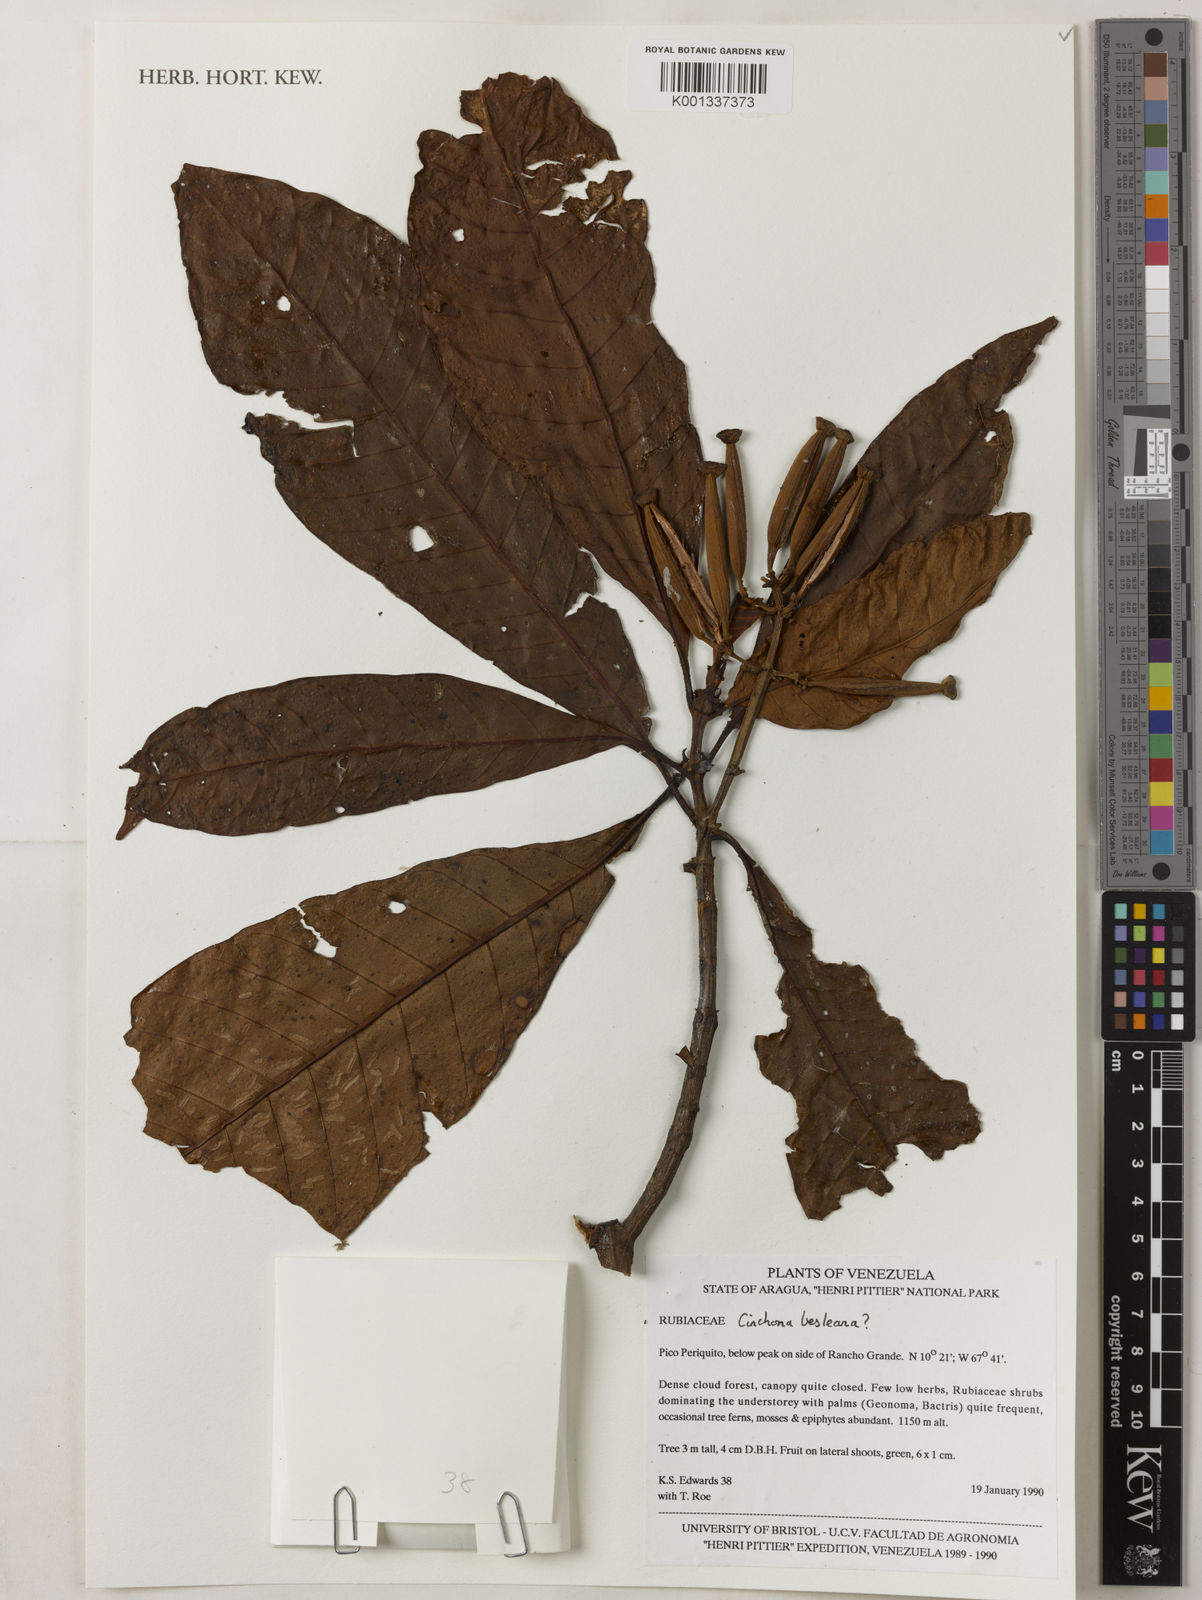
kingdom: Plantae
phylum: Tracheophyta
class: Magnoliopsida
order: Gentianales
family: Rubiaceae
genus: Cinchona
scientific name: Cinchona
